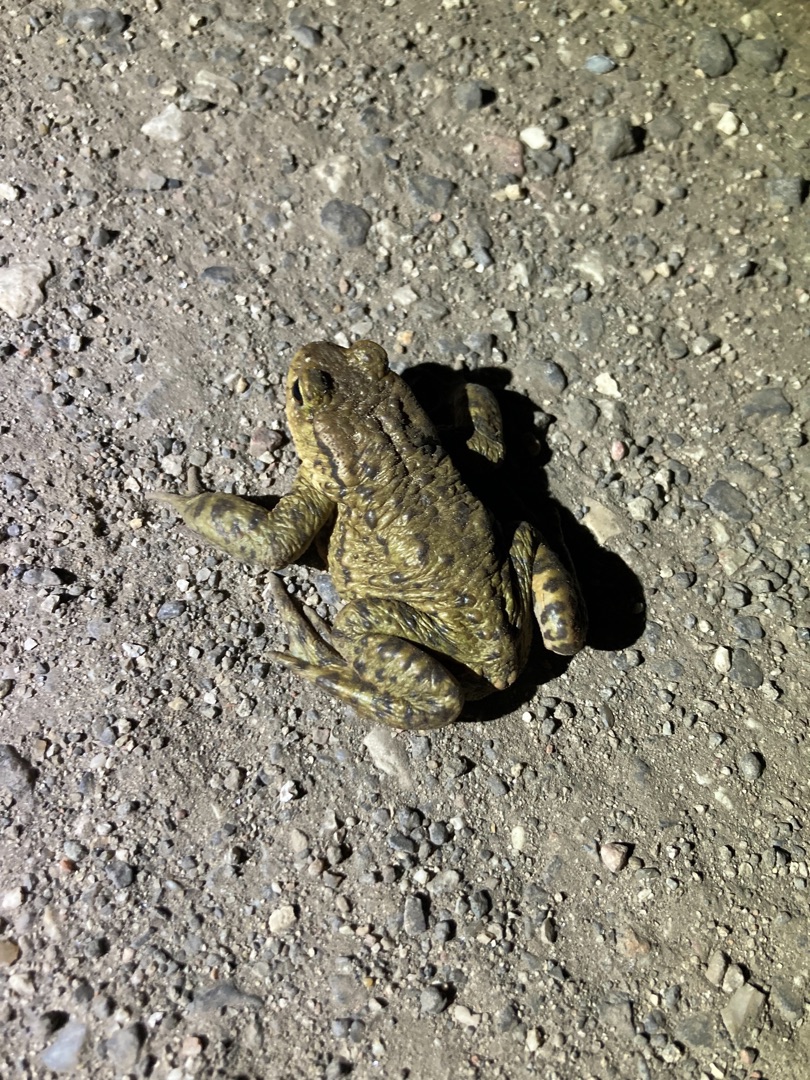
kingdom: Animalia
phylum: Chordata
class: Amphibia
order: Anura
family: Bufonidae
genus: Bufo
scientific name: Bufo bufo
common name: Skrubtudse
